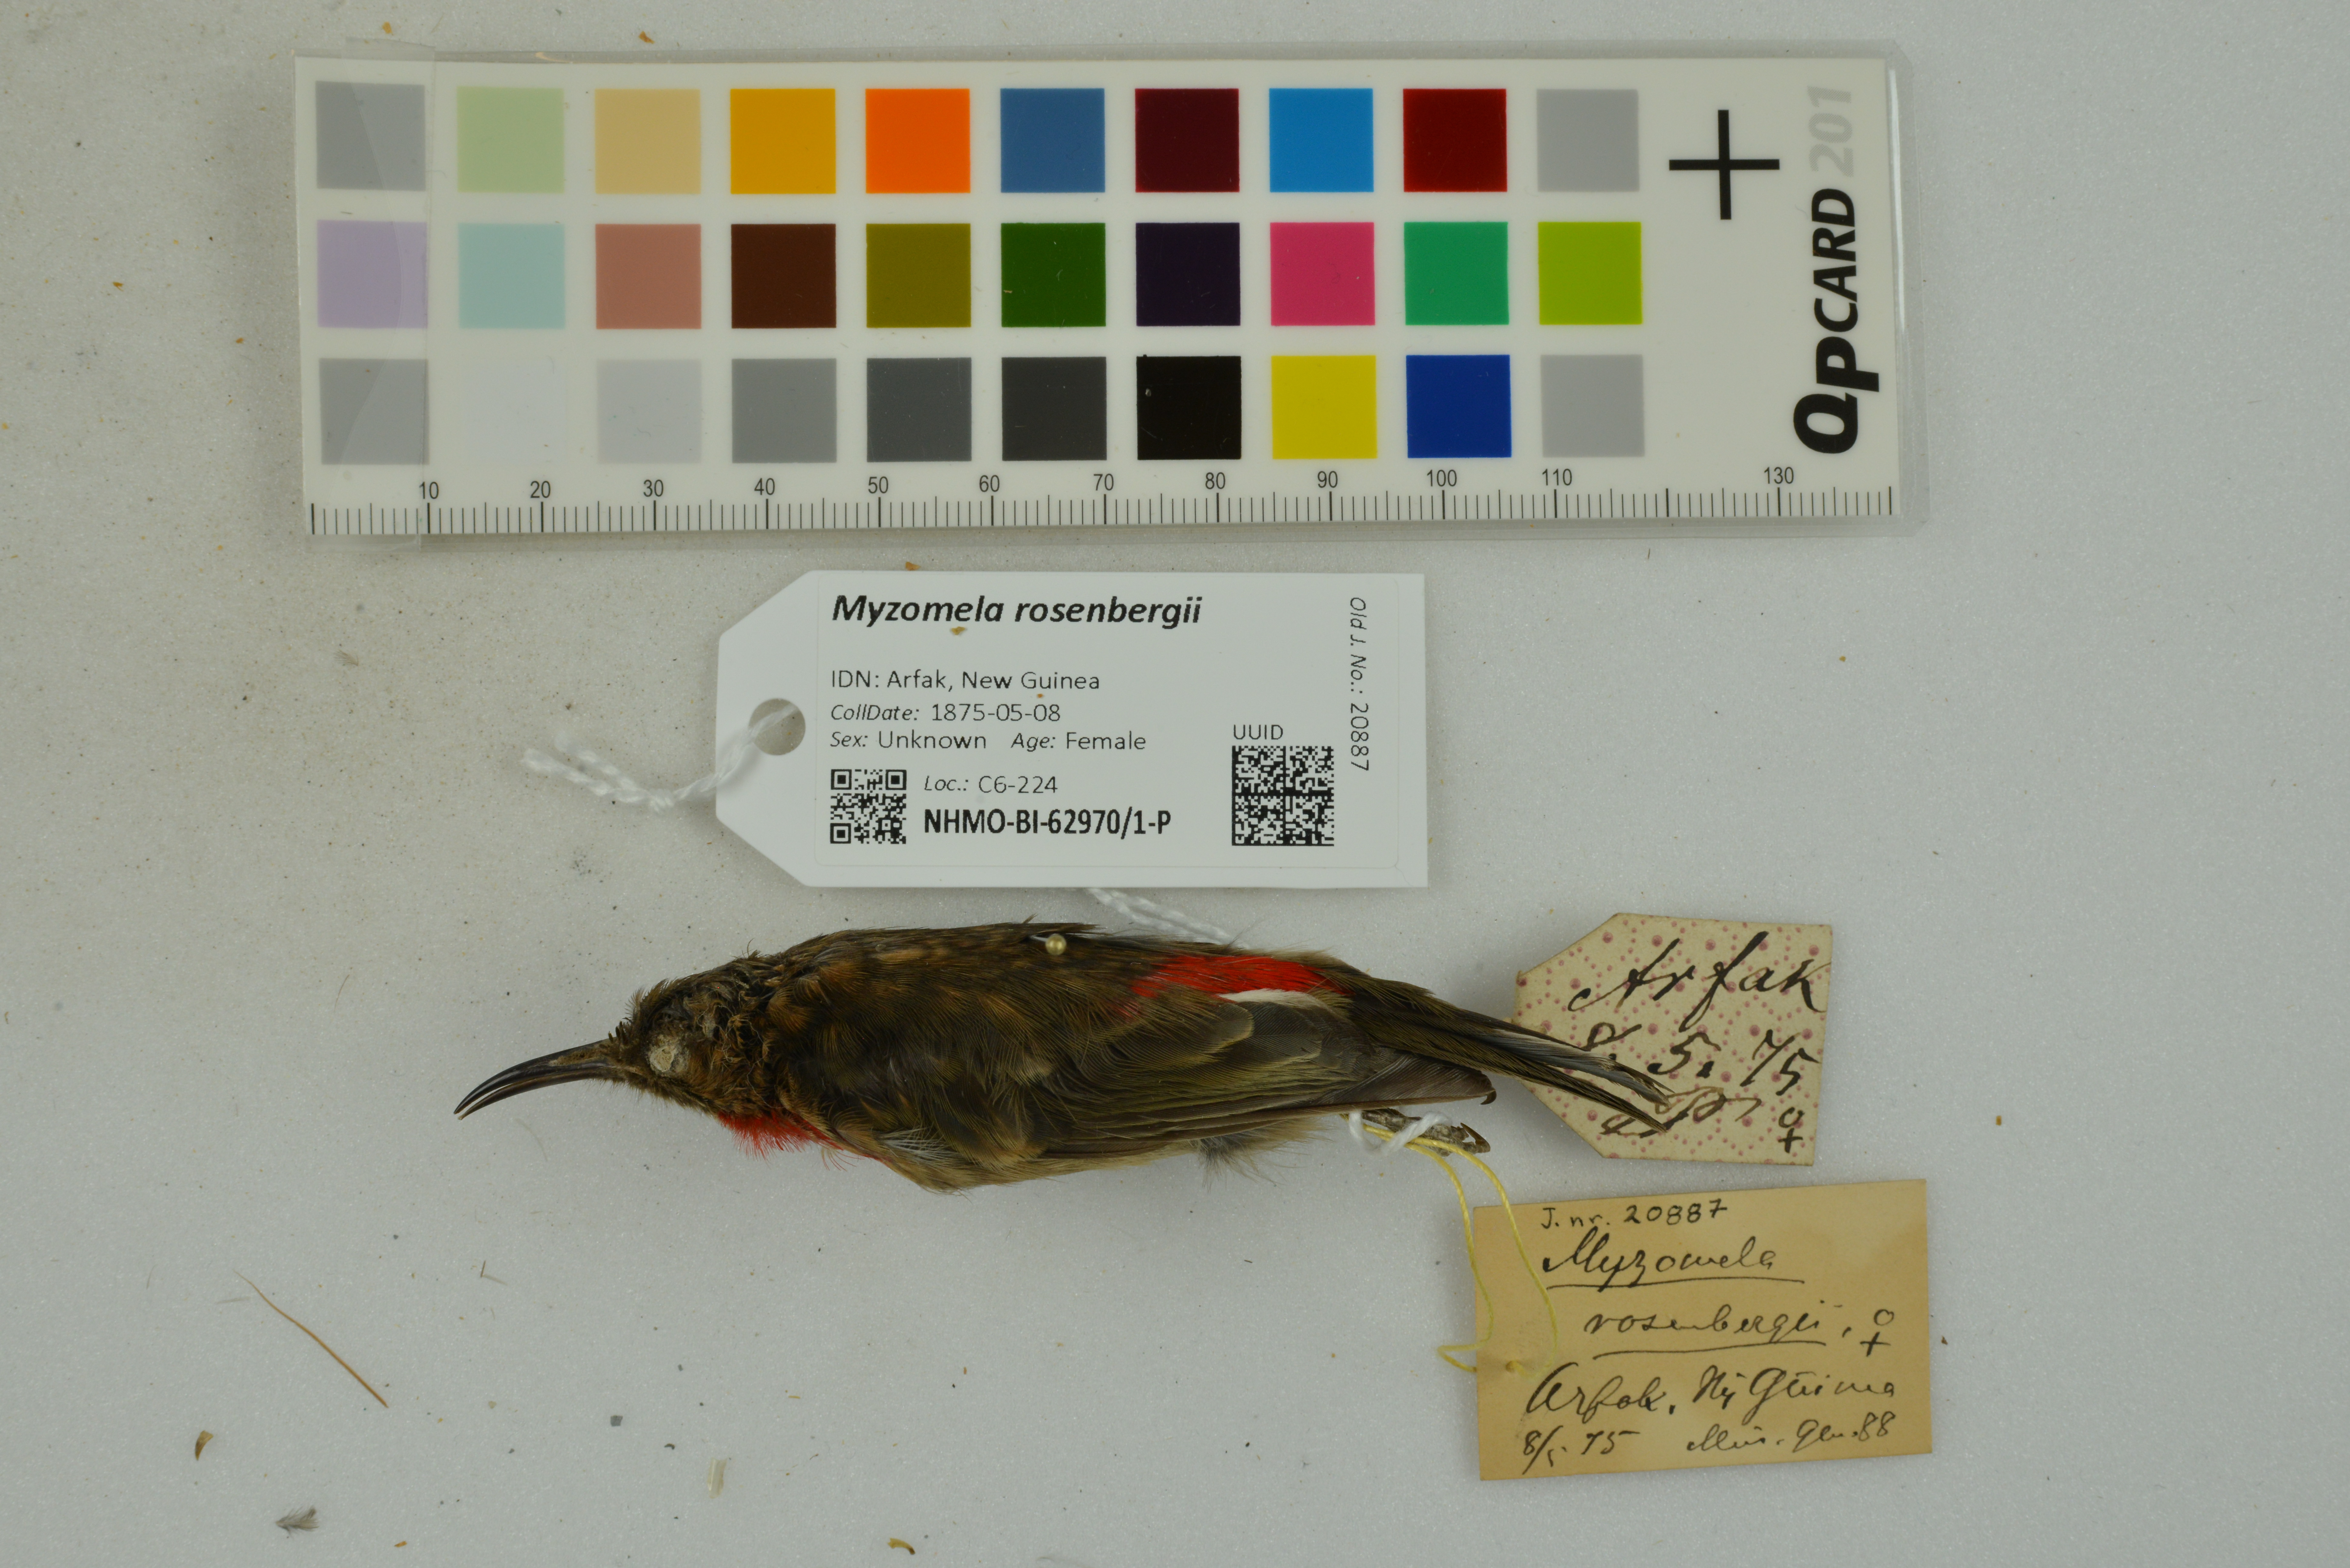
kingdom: Animalia
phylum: Chordata
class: Aves
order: Passeriformes
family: Meliphagidae
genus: Myzomela
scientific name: Myzomela rosenbergii
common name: Red-collared myzomela
